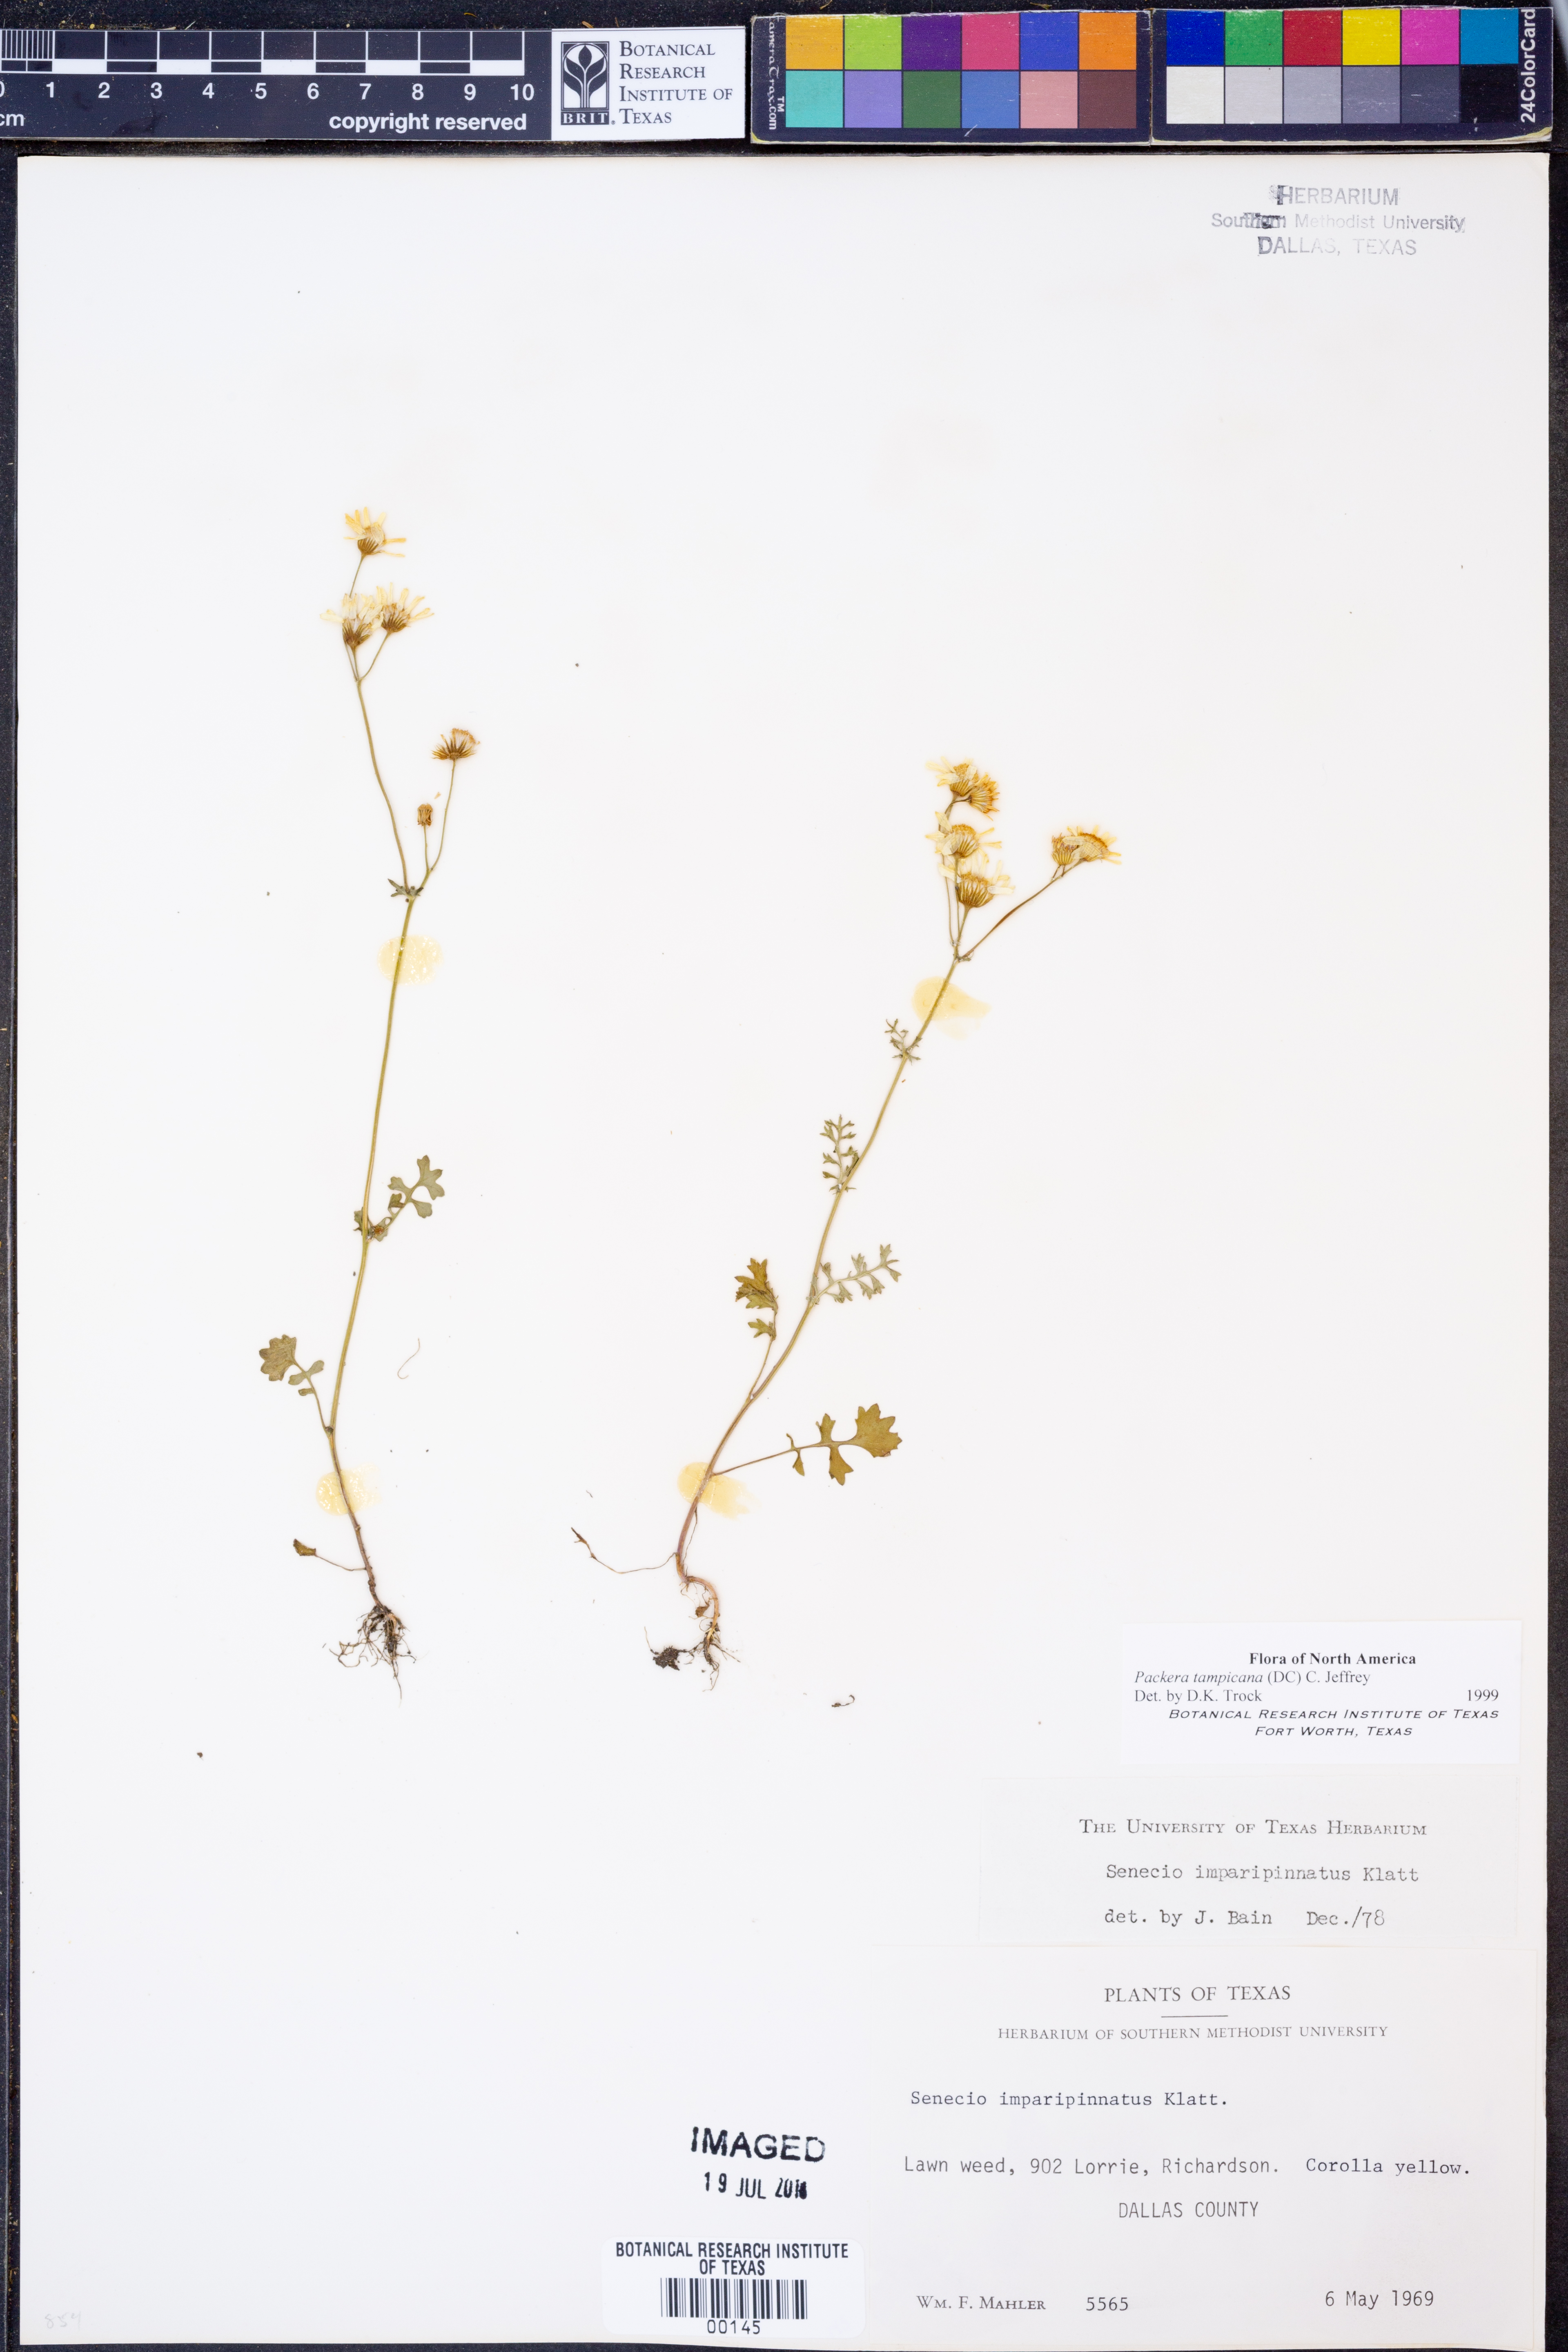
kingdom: Plantae
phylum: Tracheophyta
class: Magnoliopsida
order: Asterales
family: Asteraceae
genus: Packera
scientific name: Packera tampicana
